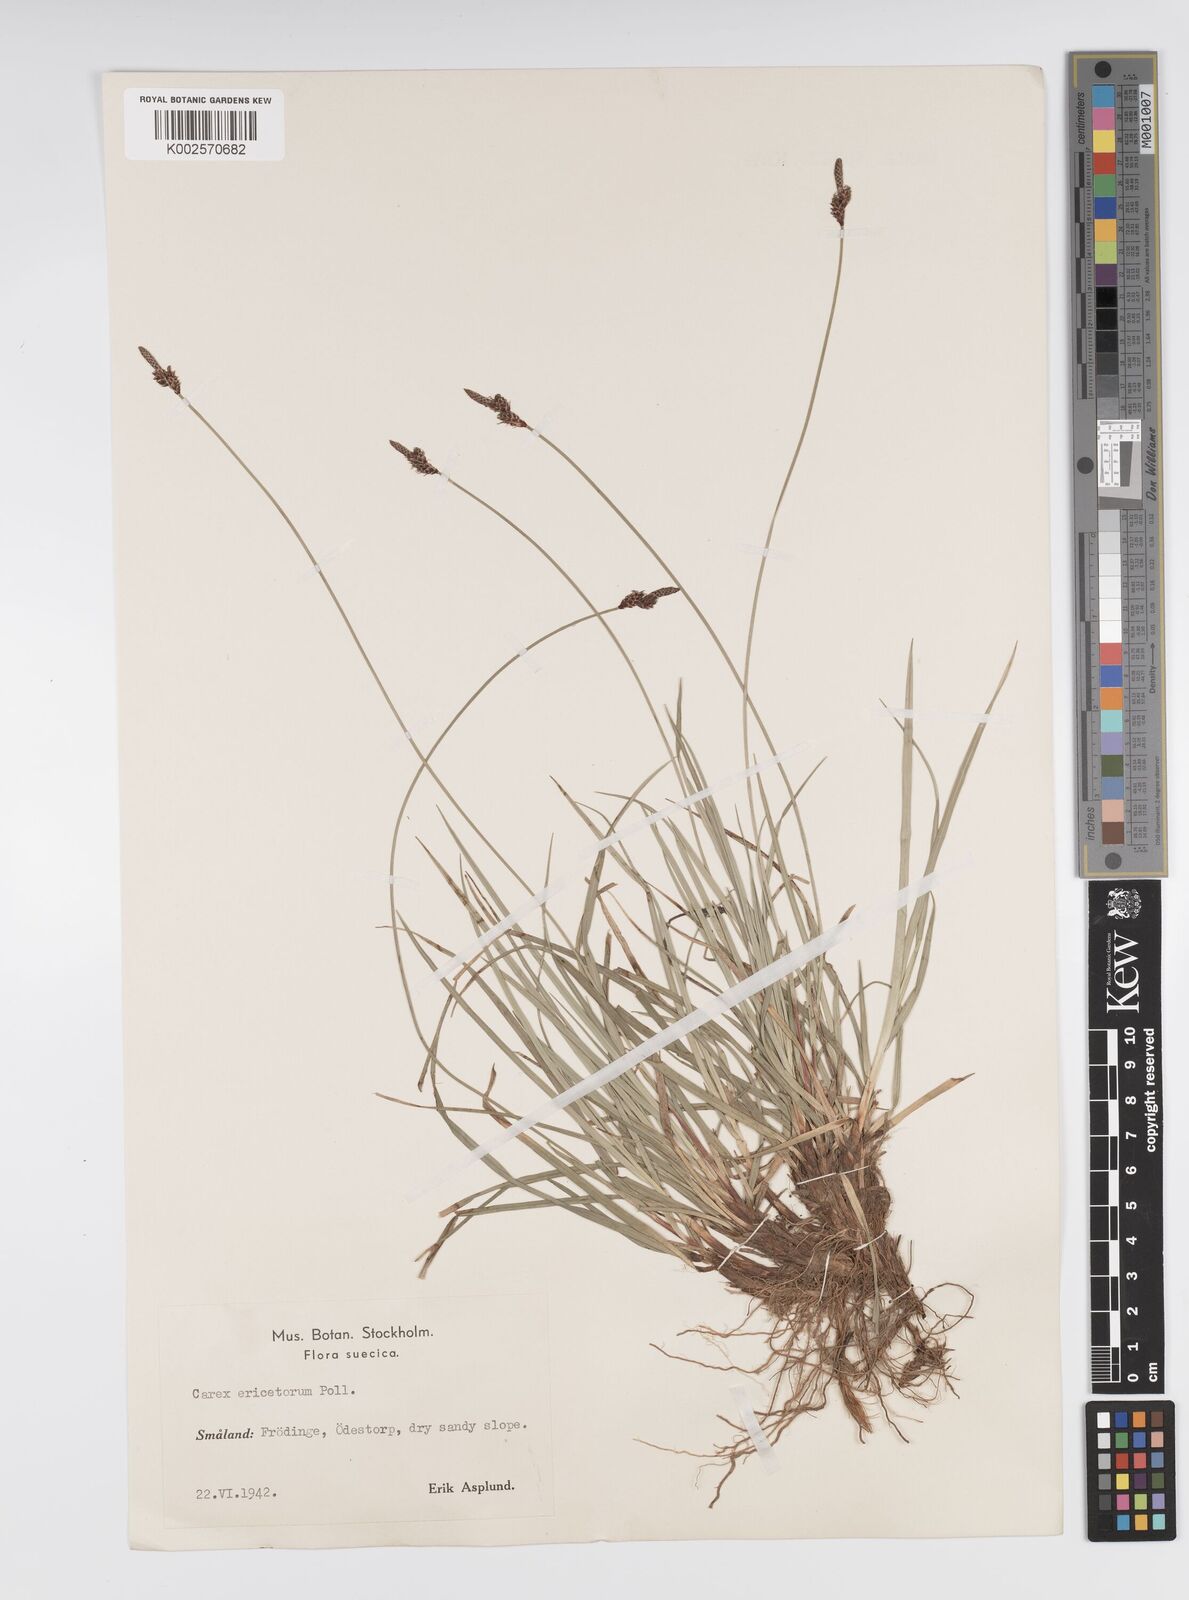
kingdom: Plantae
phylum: Tracheophyta
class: Liliopsida
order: Poales
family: Cyperaceae
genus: Carex
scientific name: Carex ericetorum
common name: Rare spring-sedge
